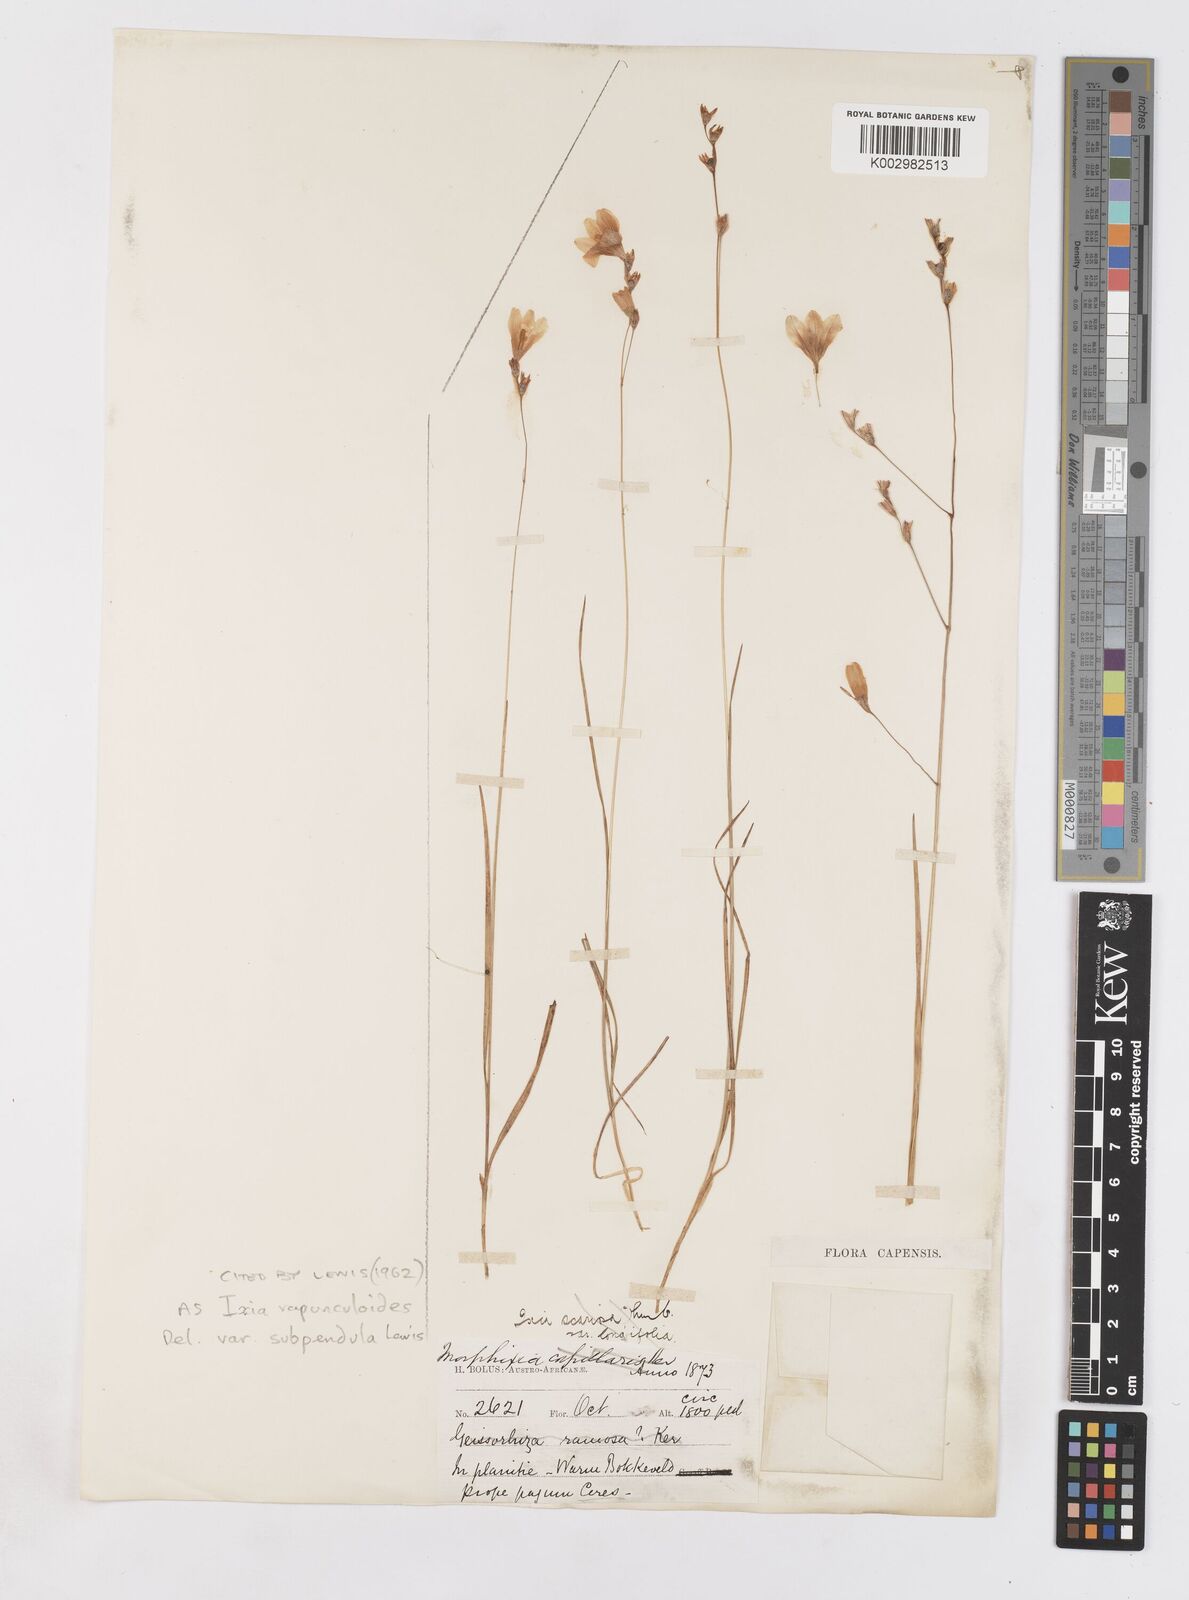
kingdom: Plantae
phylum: Tracheophyta
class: Liliopsida
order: Asparagales
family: Iridaceae
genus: Ixia
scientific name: Ixia rapunculoides
